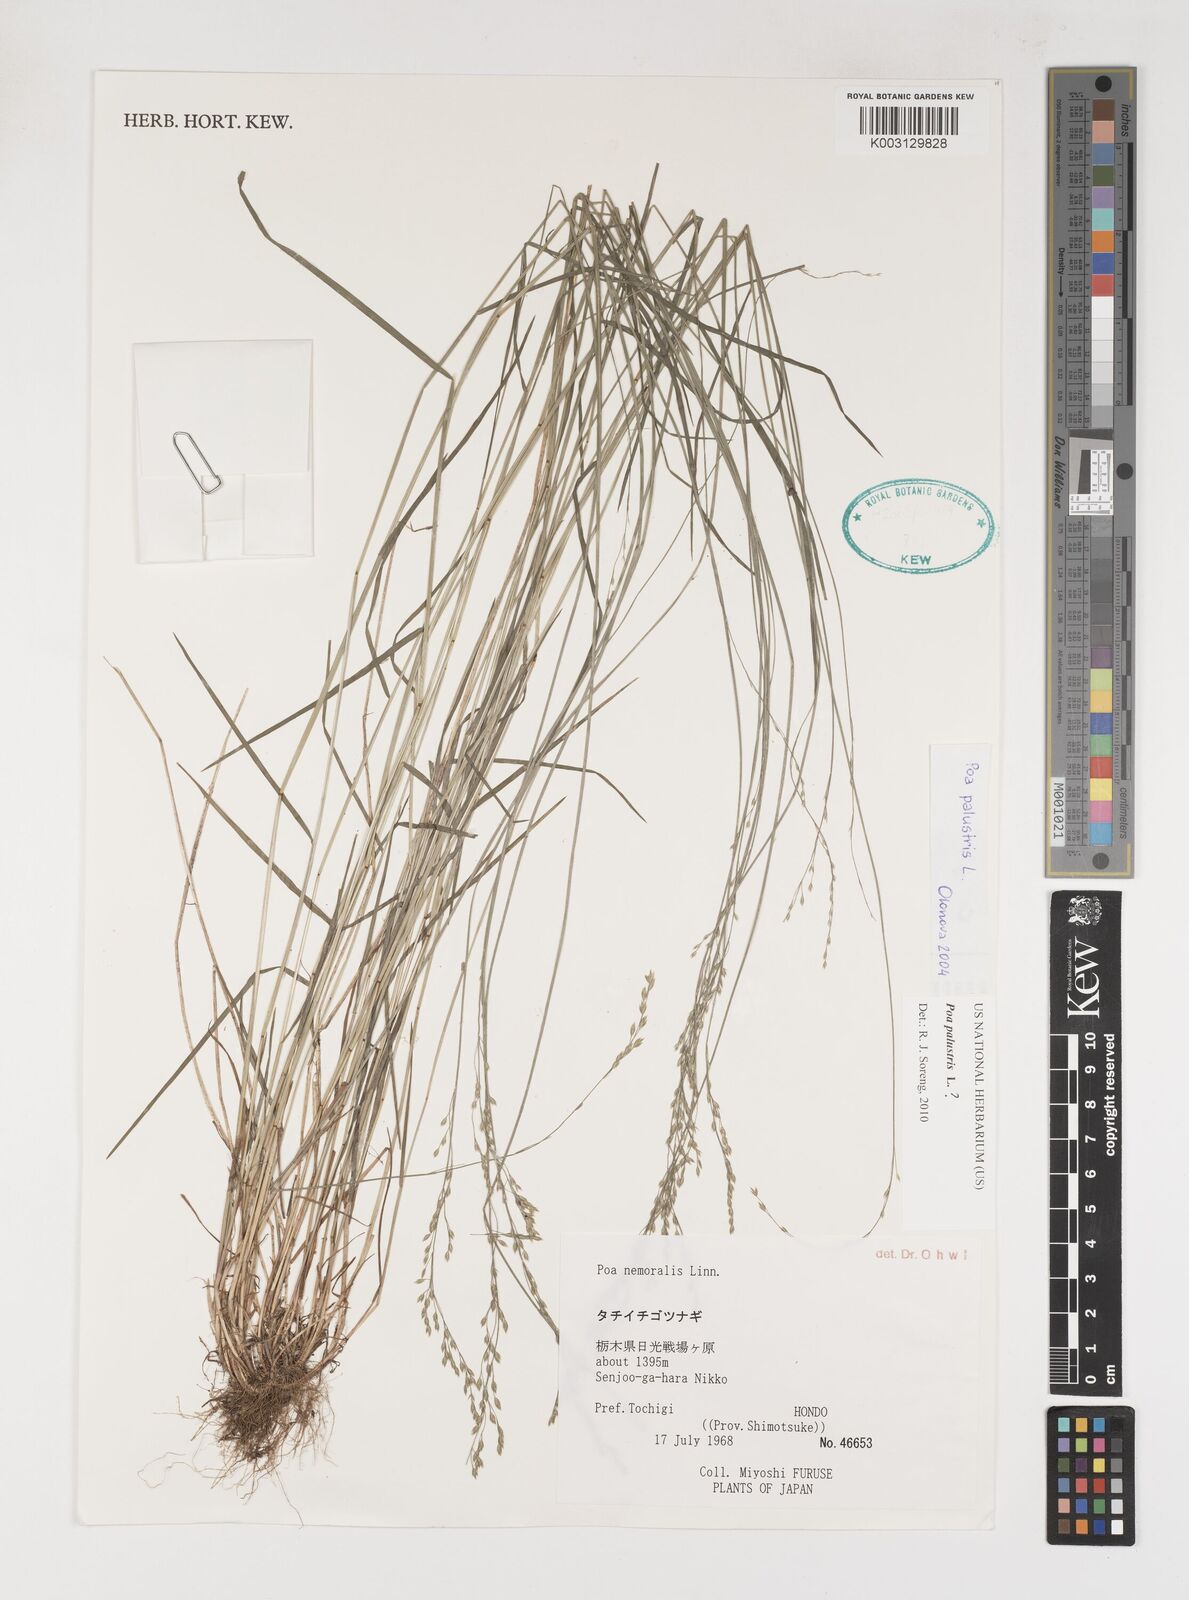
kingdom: Plantae
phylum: Tracheophyta
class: Liliopsida
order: Poales
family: Poaceae
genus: Poa
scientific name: Poa nemoralis
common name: Wood bluegrass
